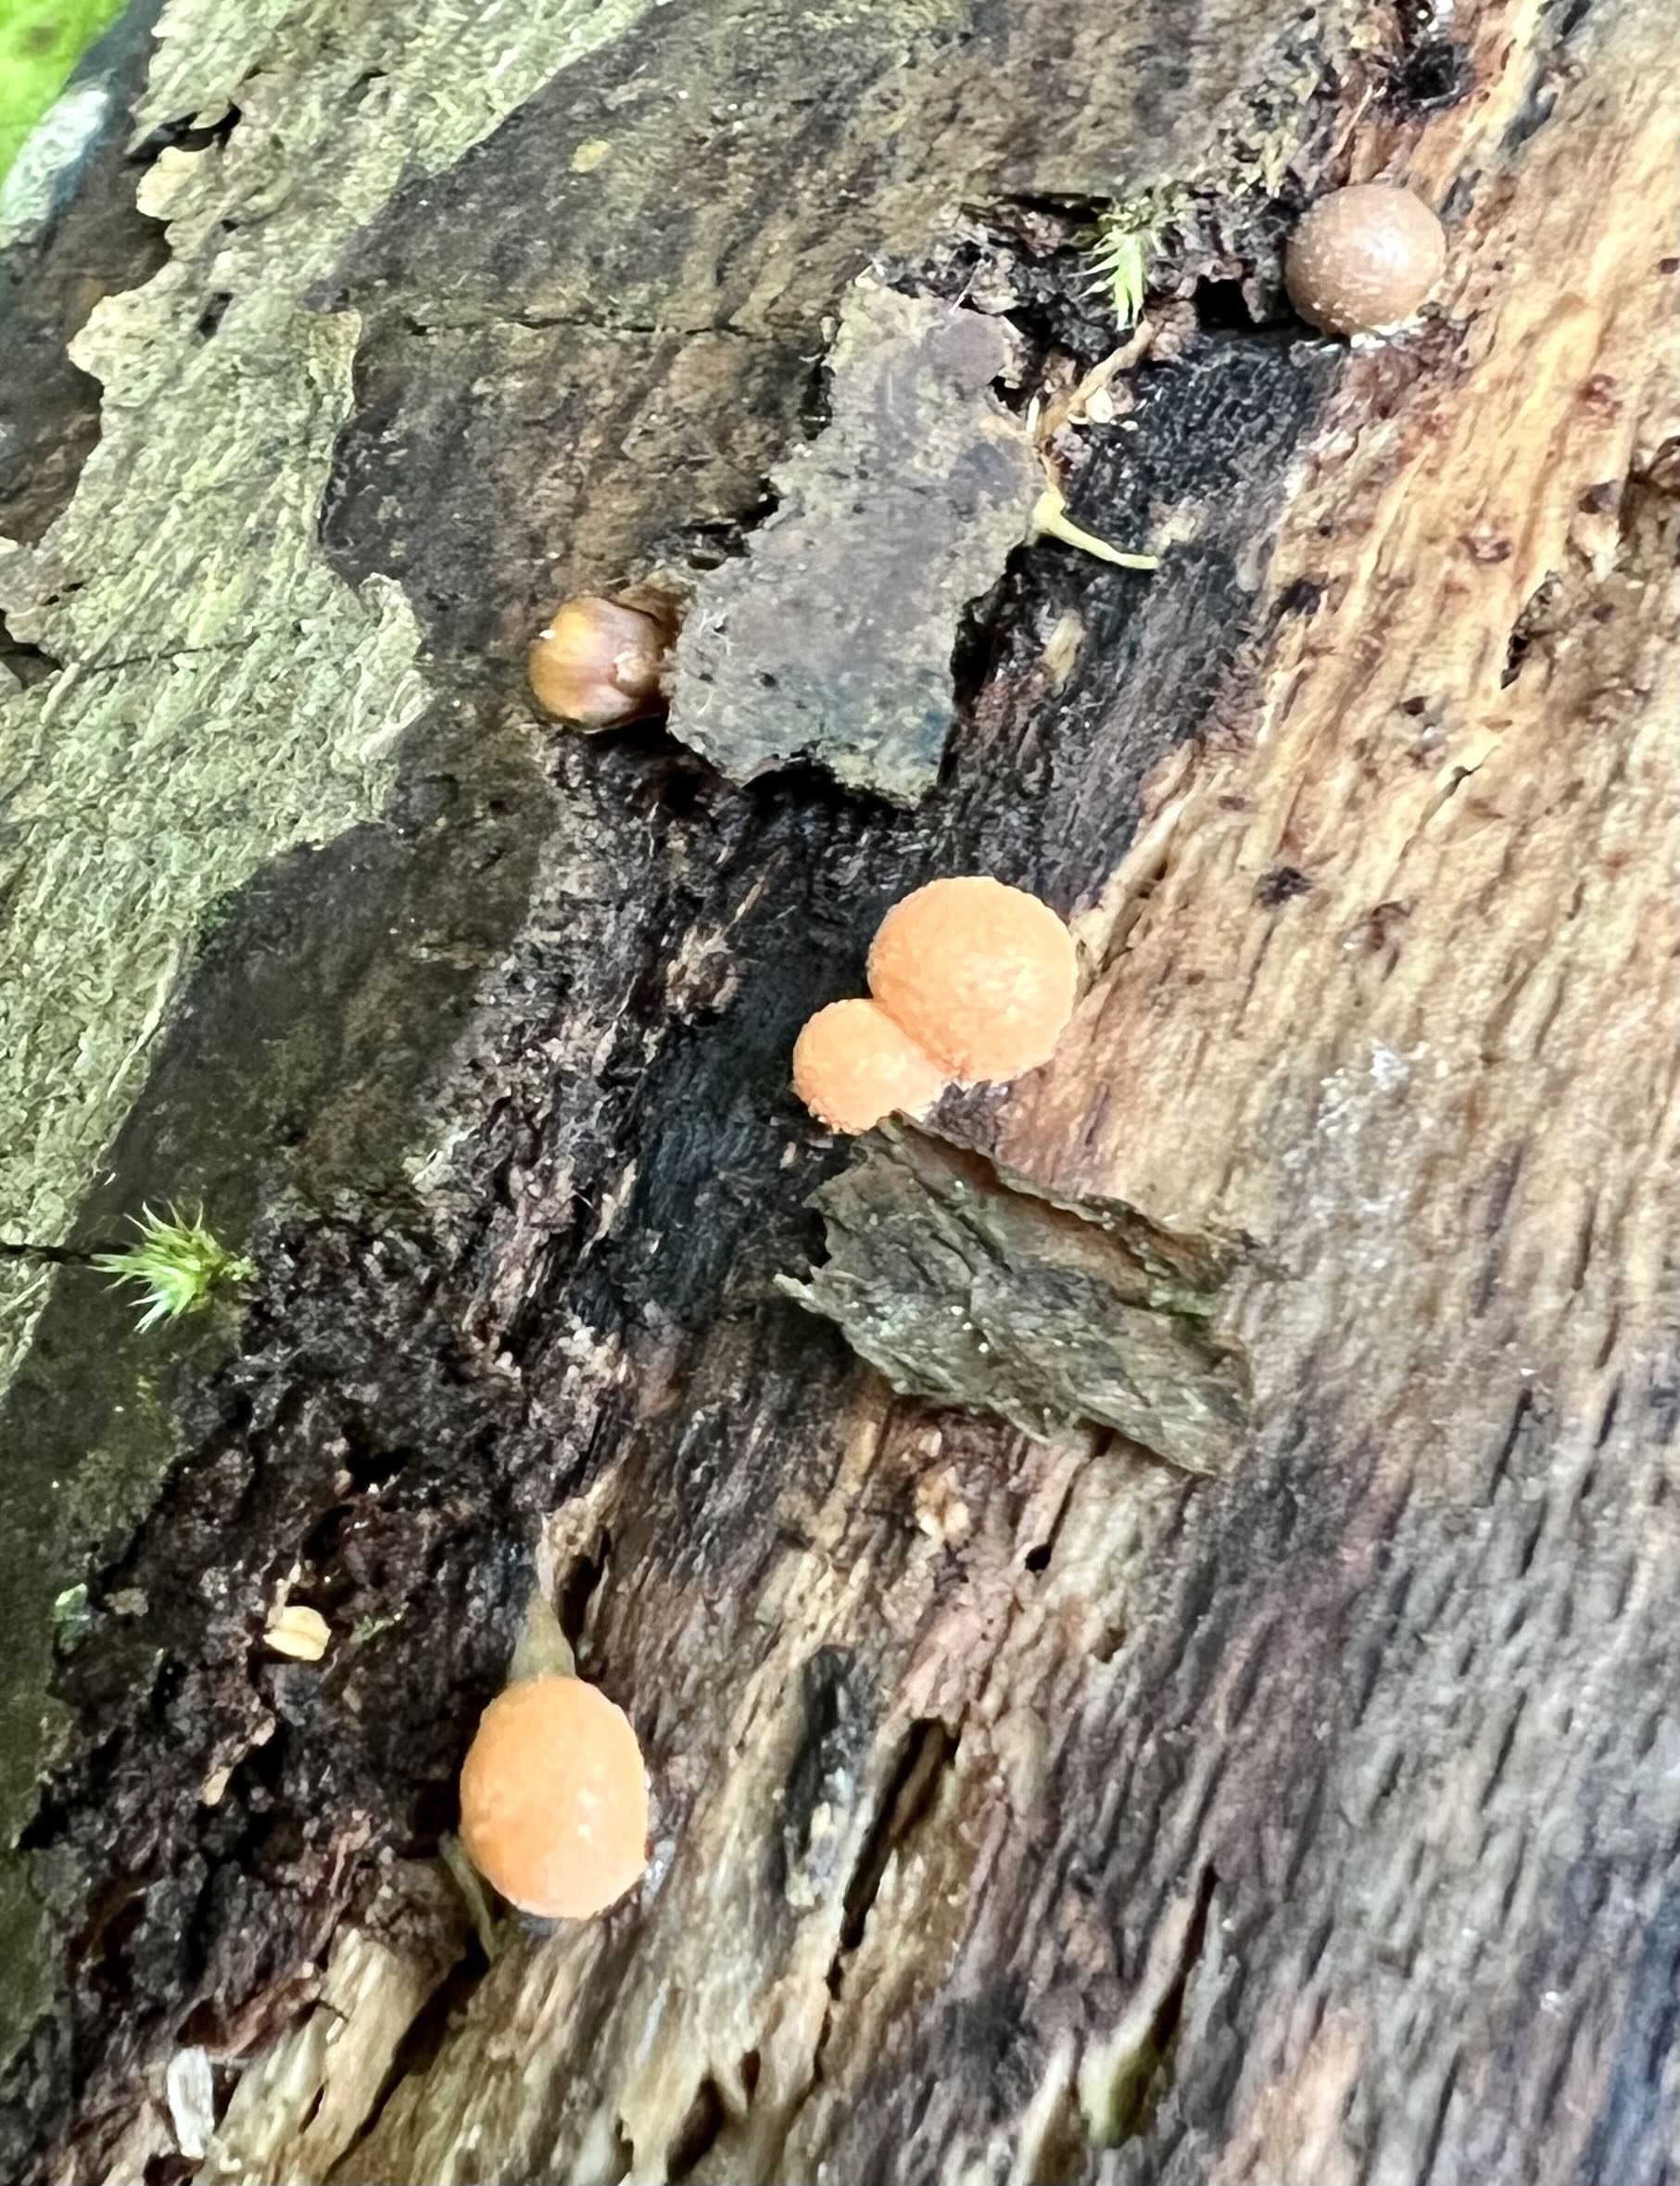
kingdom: Protozoa
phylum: Mycetozoa
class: Myxomycetes
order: Cribrariales
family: Tubiferaceae
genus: Lycogala
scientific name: Lycogala epidendrum
